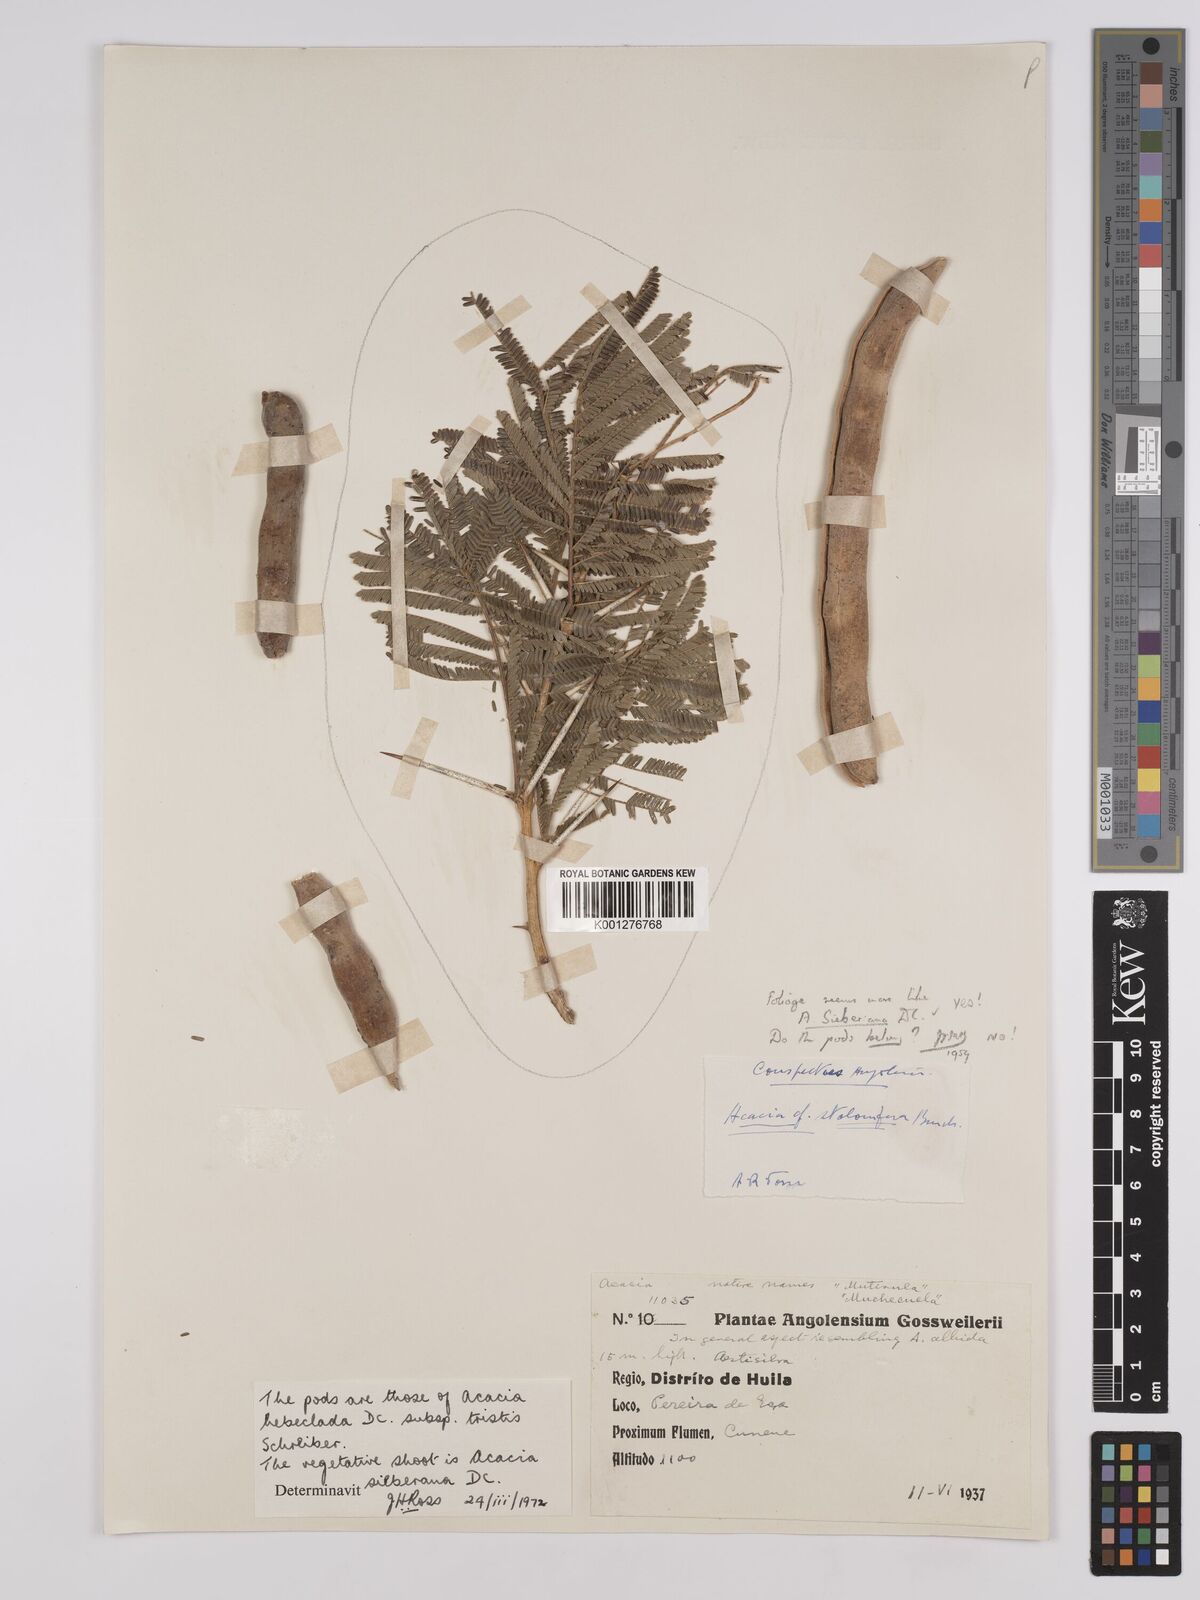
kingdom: Plantae
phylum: Tracheophyta
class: Magnoliopsida
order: Fabales
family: Fabaceae
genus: Vachellia
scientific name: Vachellia hebeclada
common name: Candle thorn
